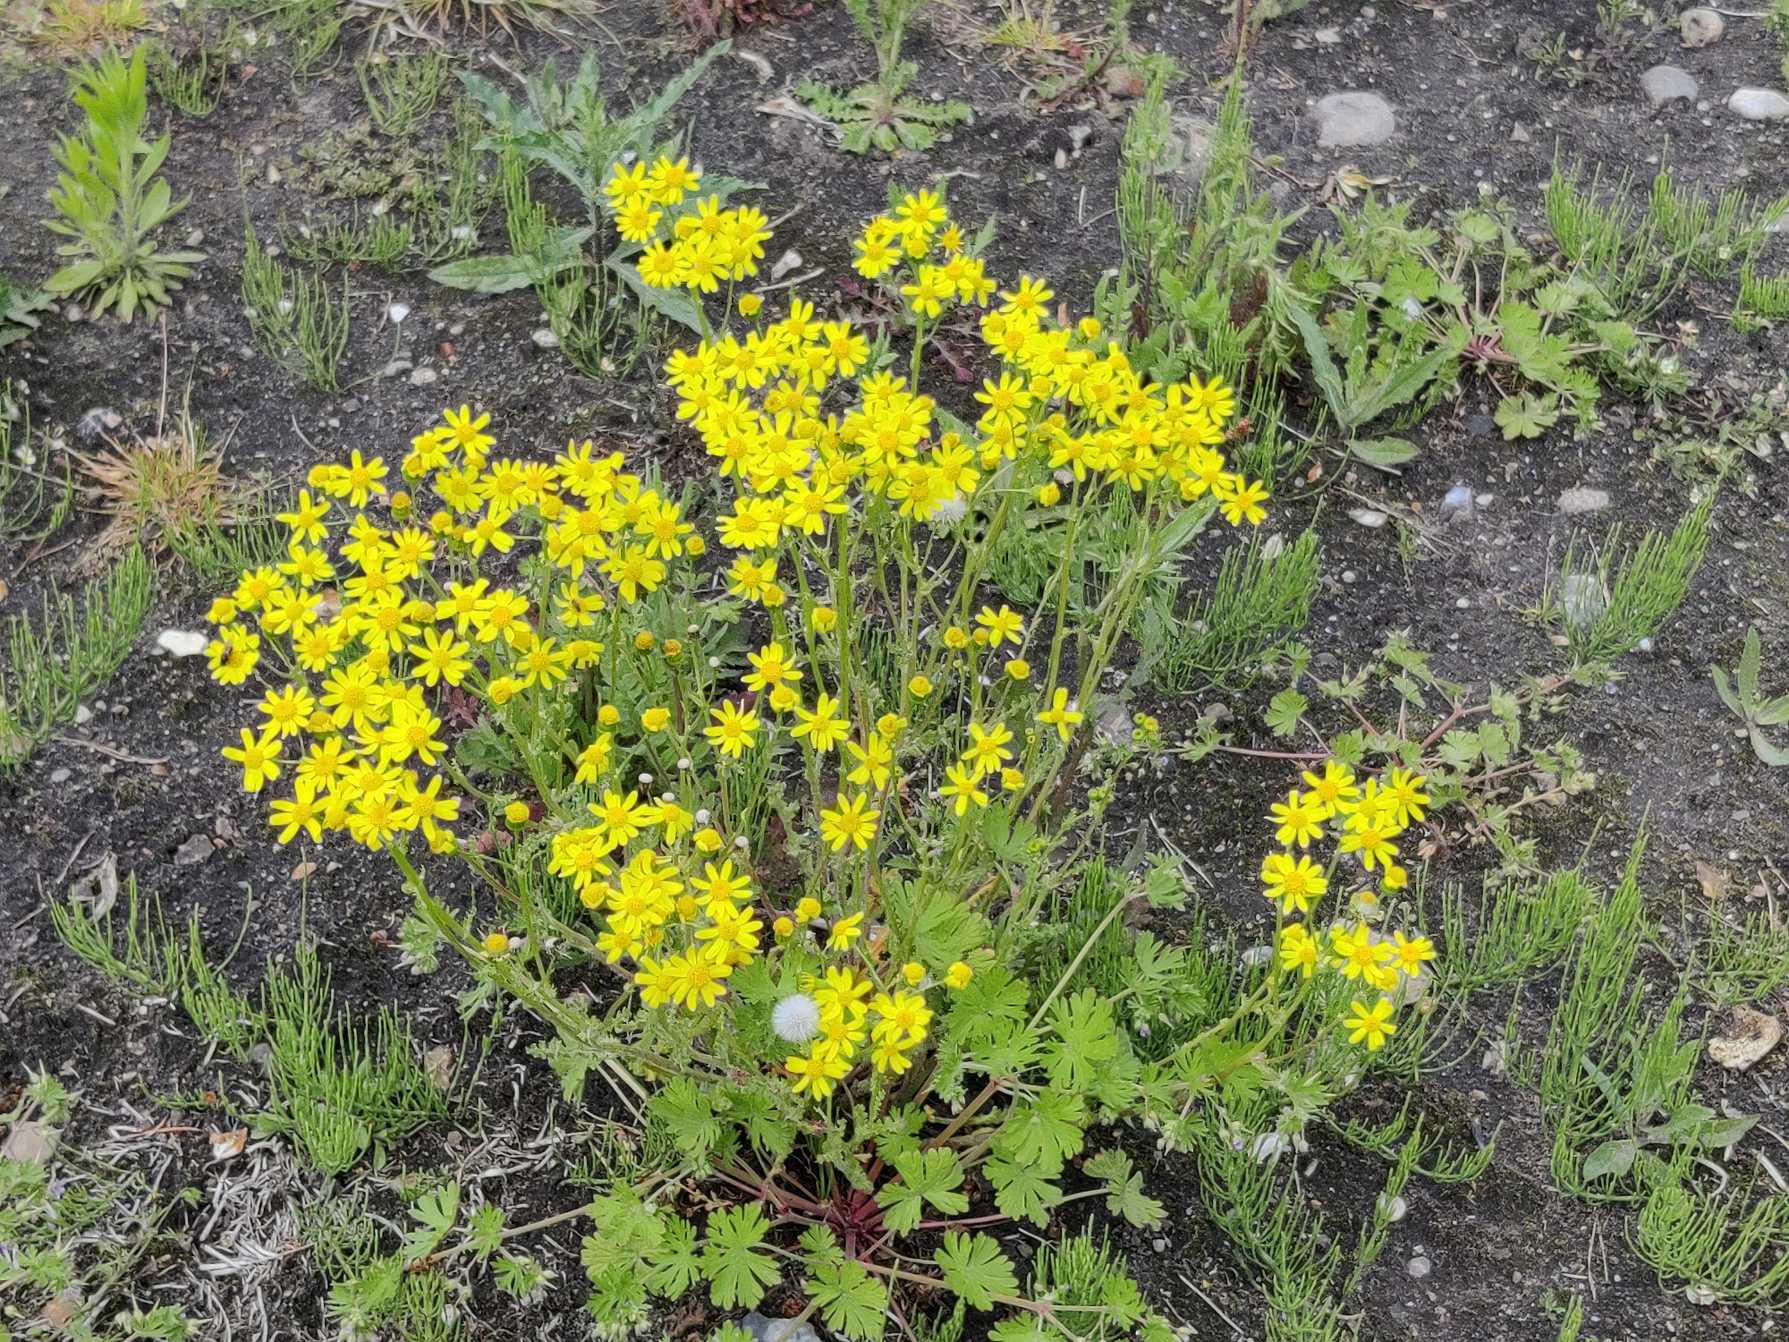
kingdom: Plantae
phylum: Tracheophyta
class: Magnoliopsida
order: Asterales
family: Asteraceae
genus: Senecio
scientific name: Senecio leucanthemifolius
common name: Vår-brandbæger
